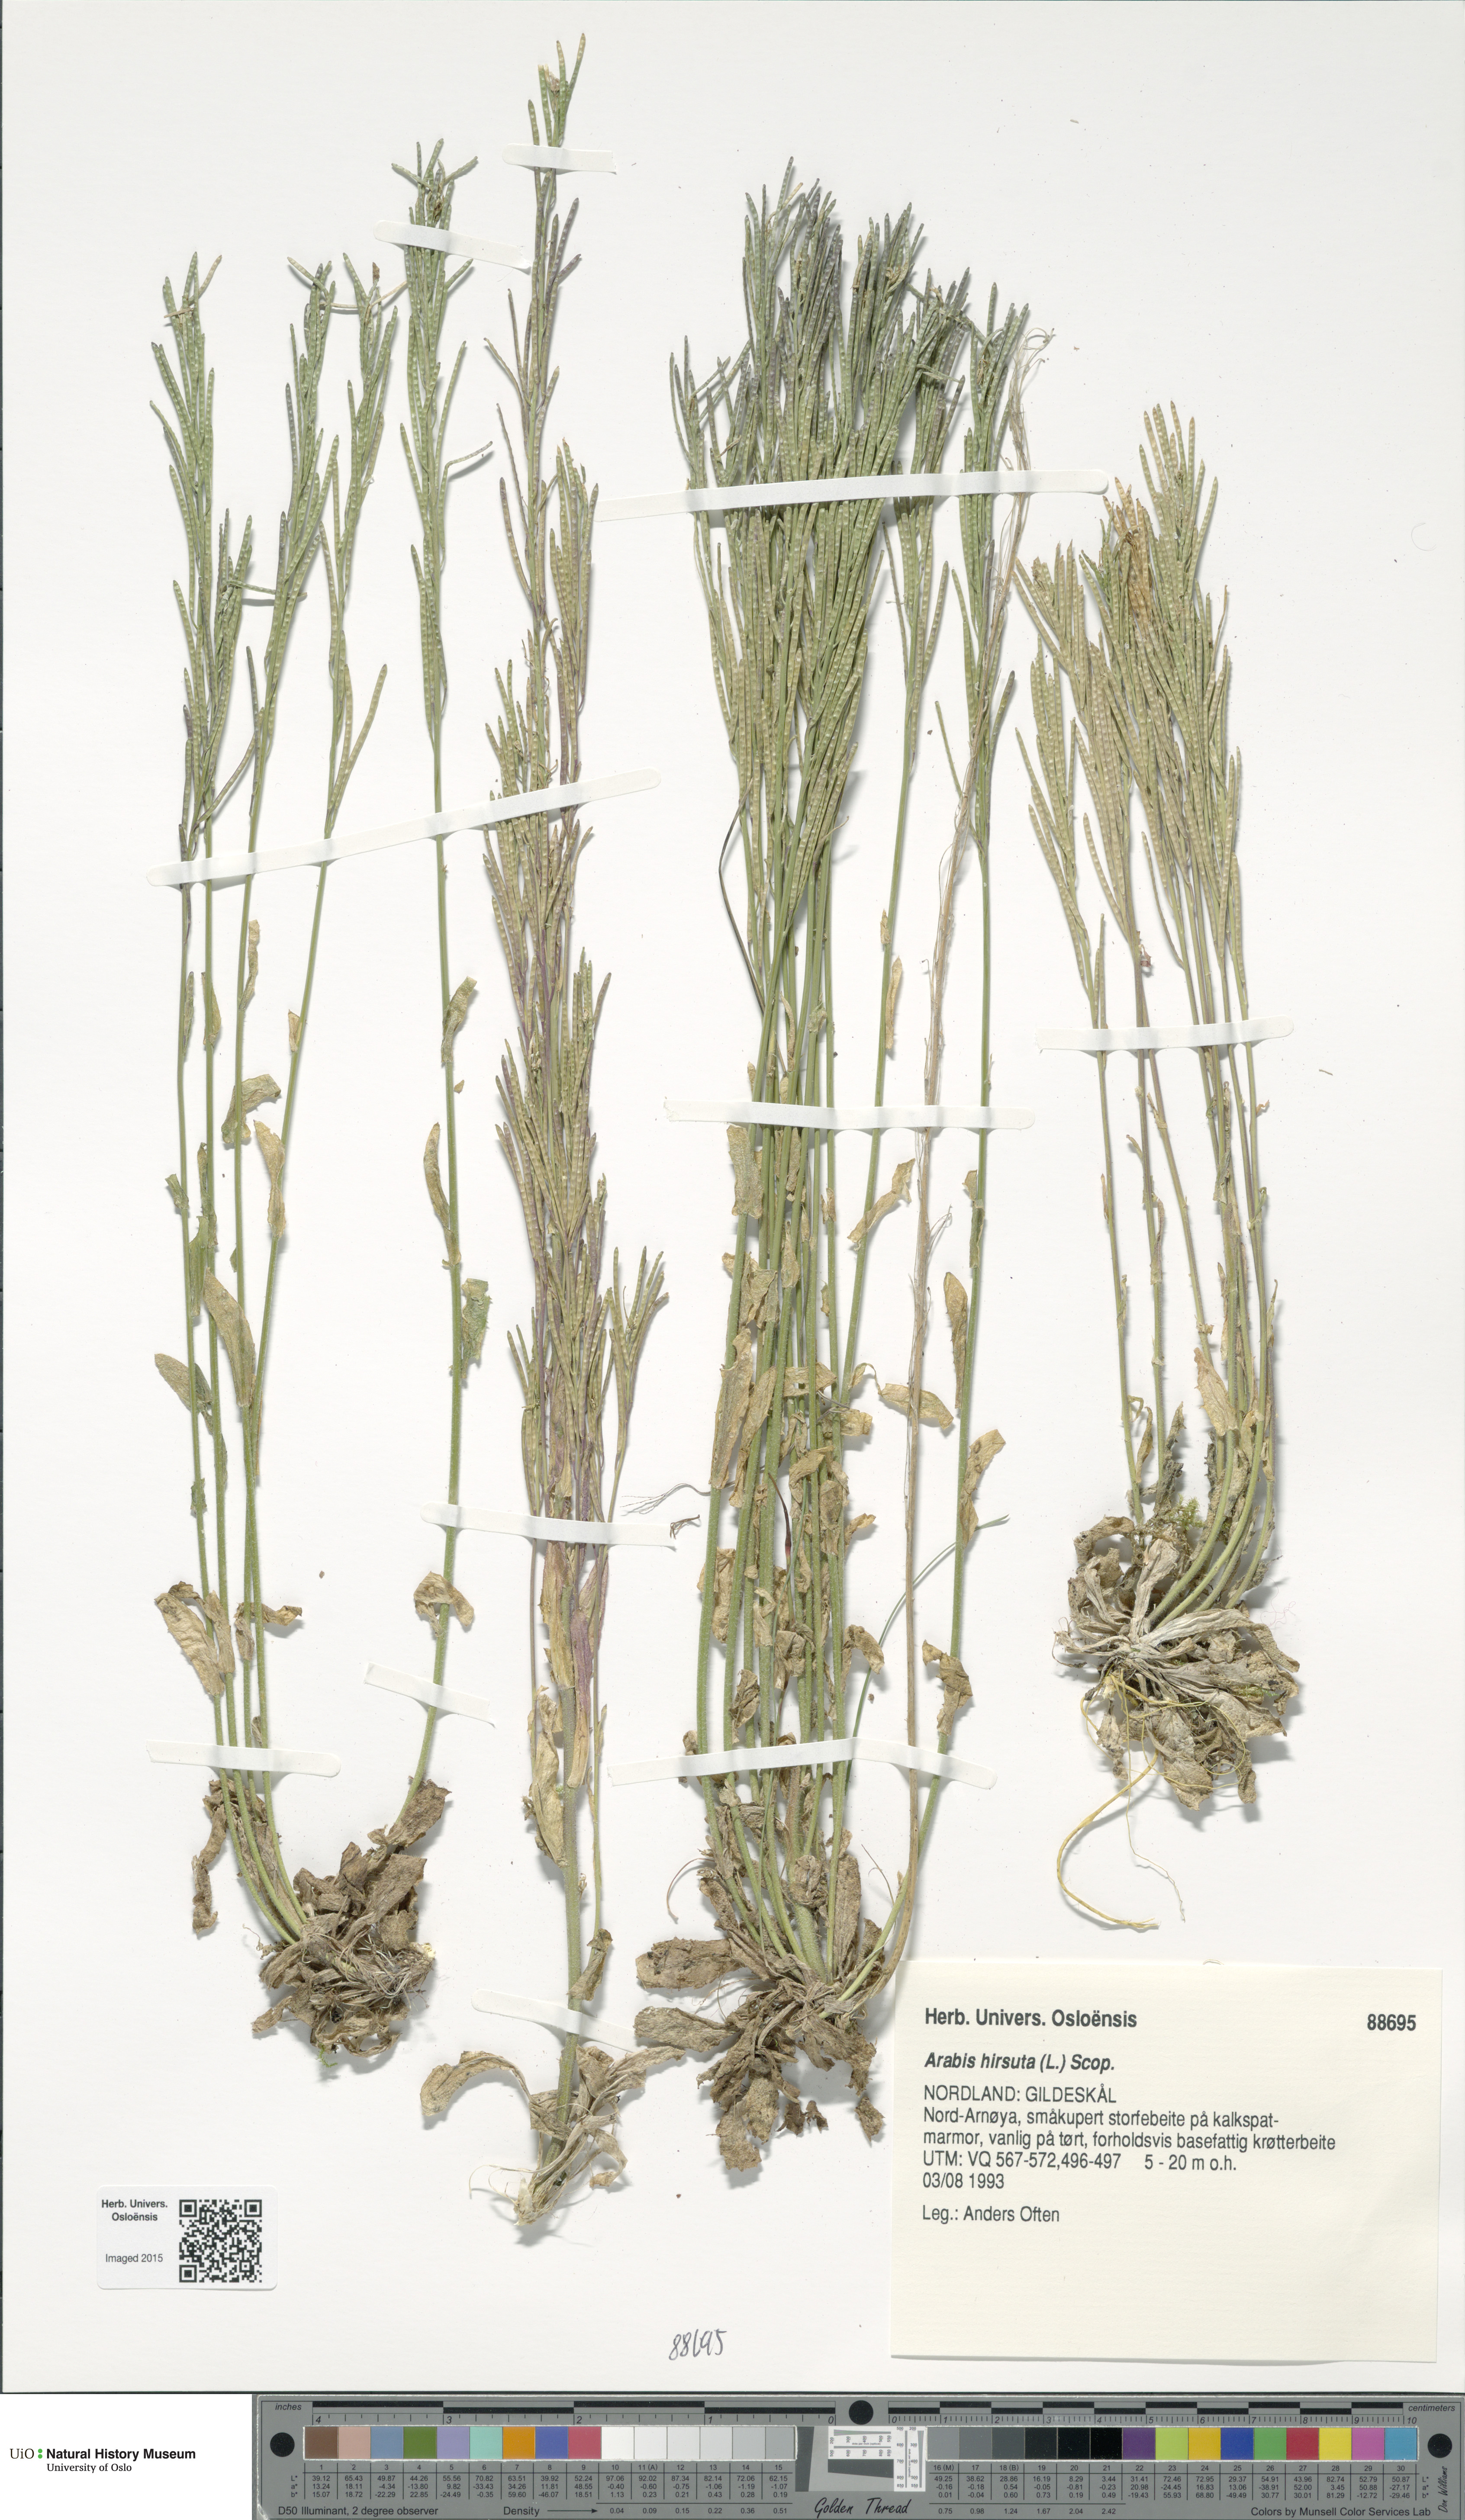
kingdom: Plantae
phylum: Tracheophyta
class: Magnoliopsida
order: Brassicales
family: Brassicaceae
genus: Arabis
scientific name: Arabis hirsuta
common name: Hairy rock-cress
